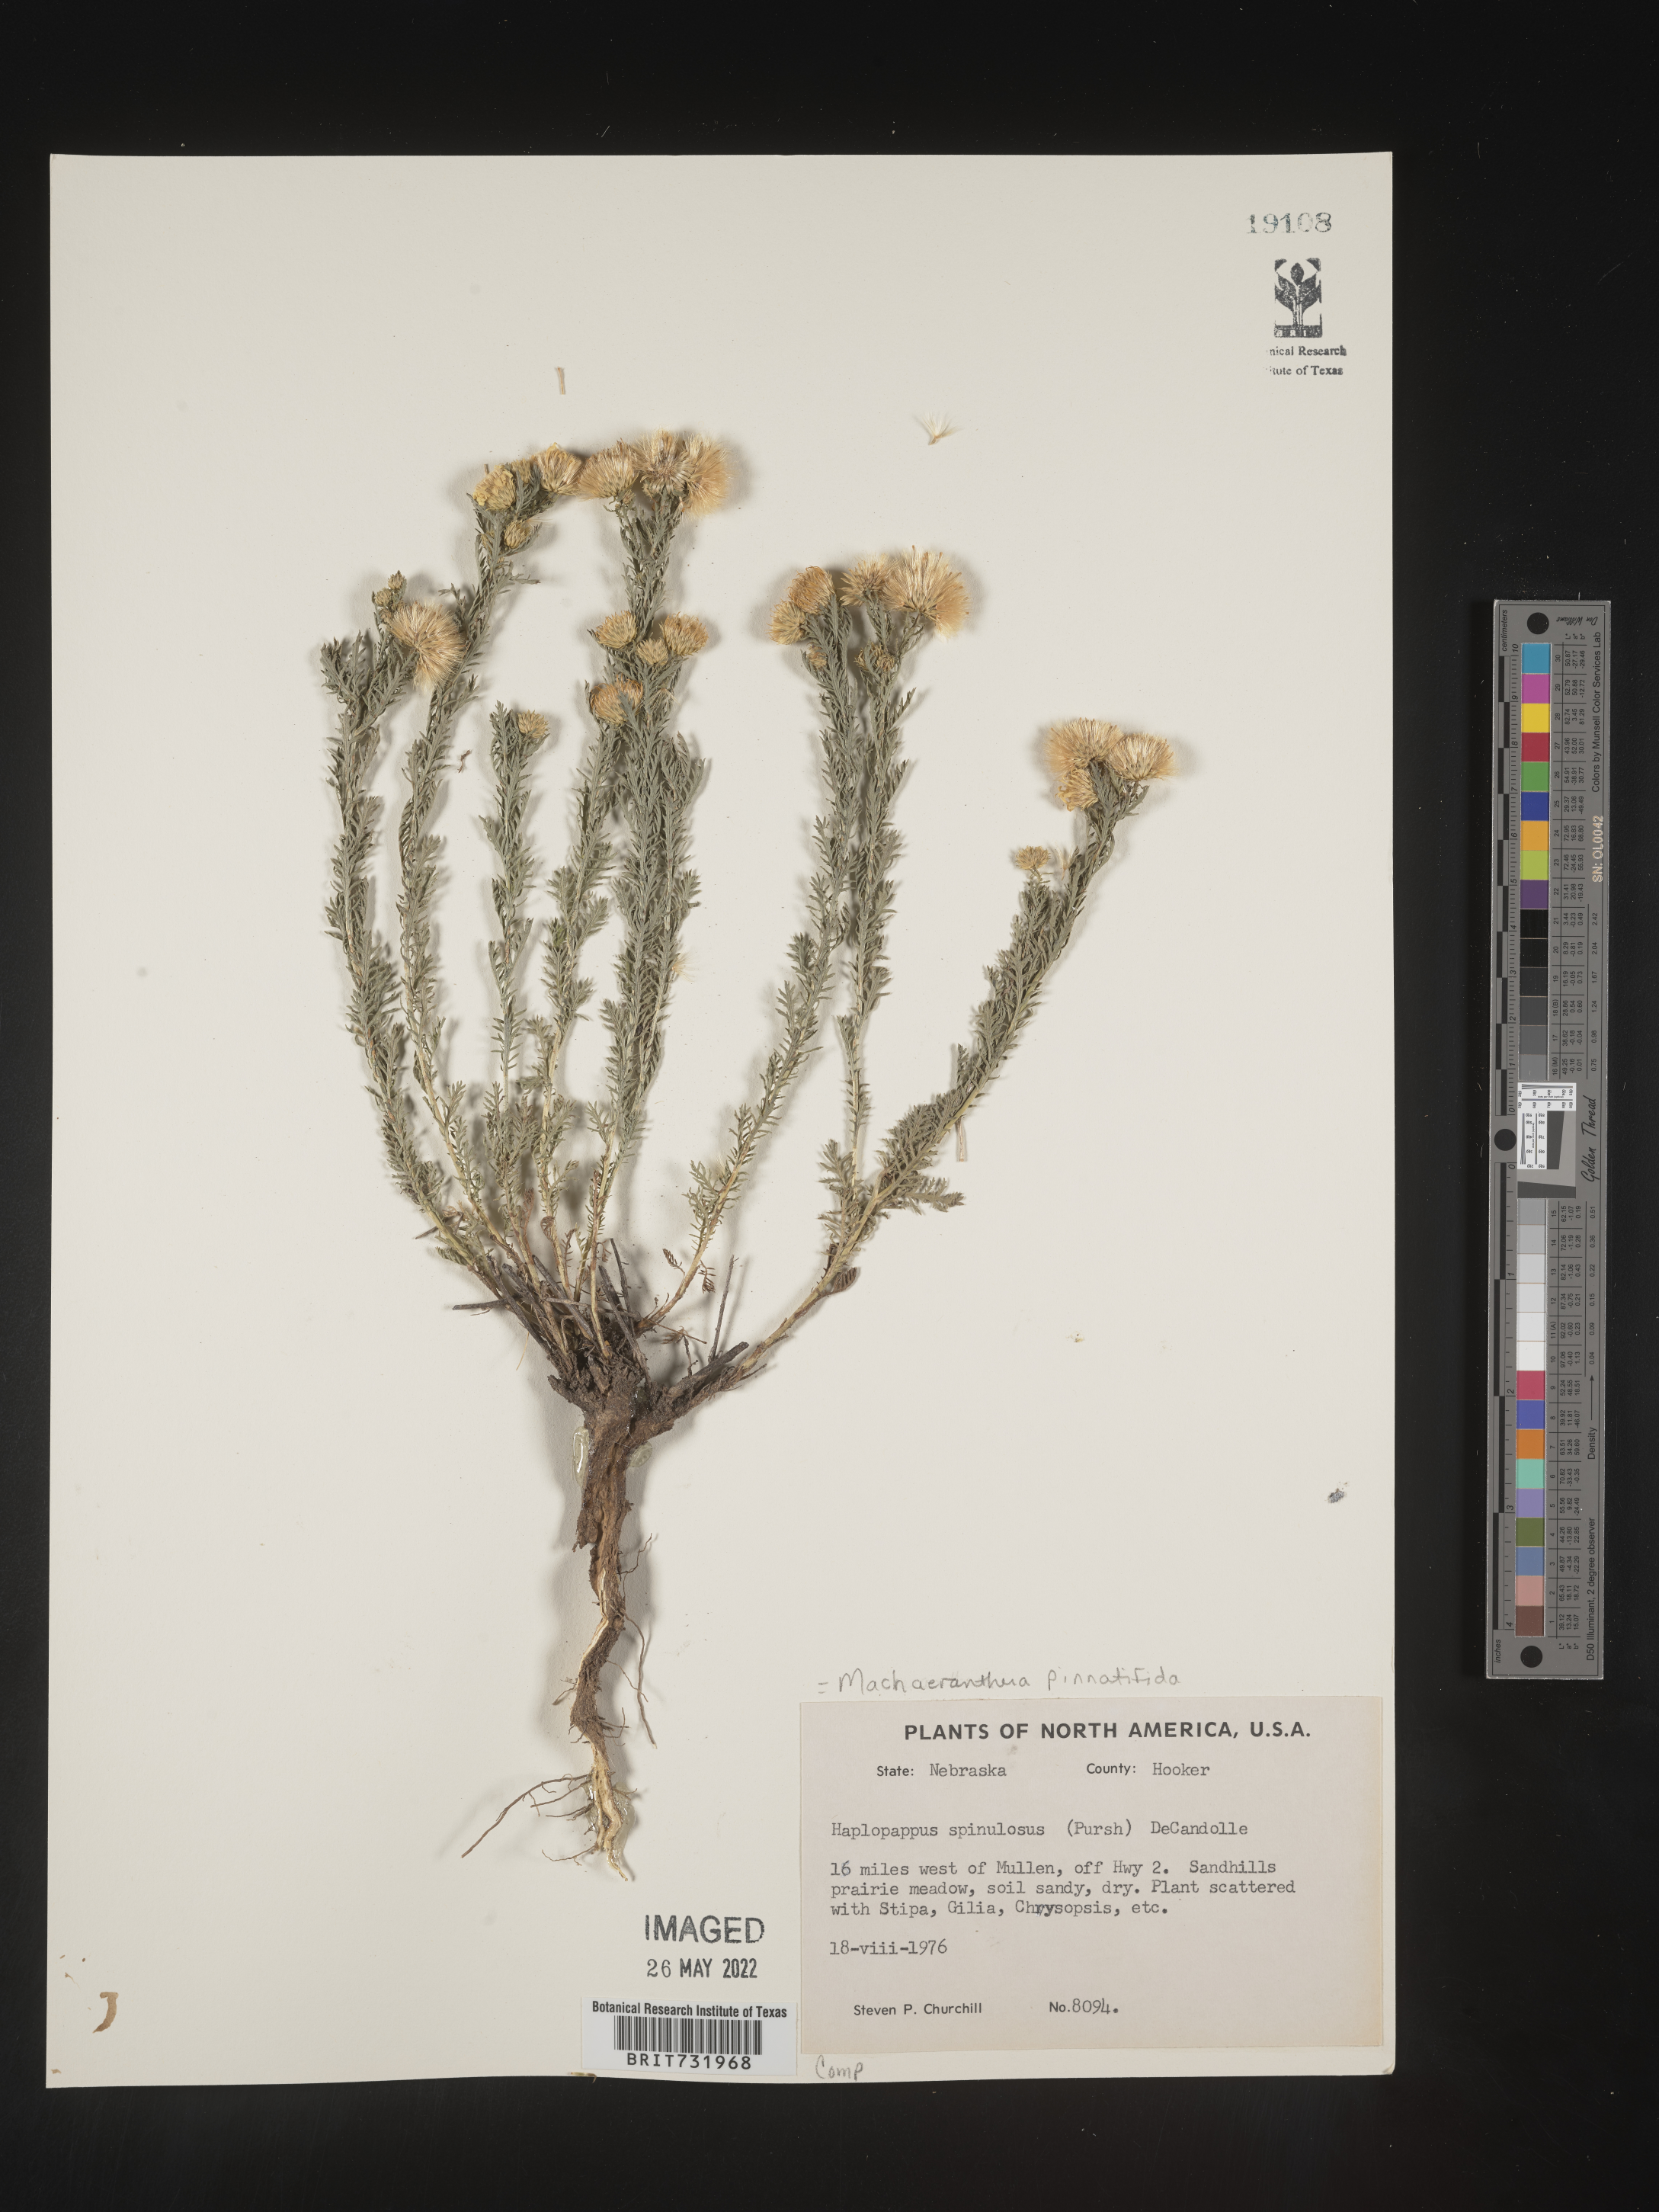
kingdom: Plantae
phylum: Tracheophyta
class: Magnoliopsida
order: Asterales
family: Asteraceae
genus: Xanthisma
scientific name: Xanthisma spinulosum
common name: Spiny goldenweed
